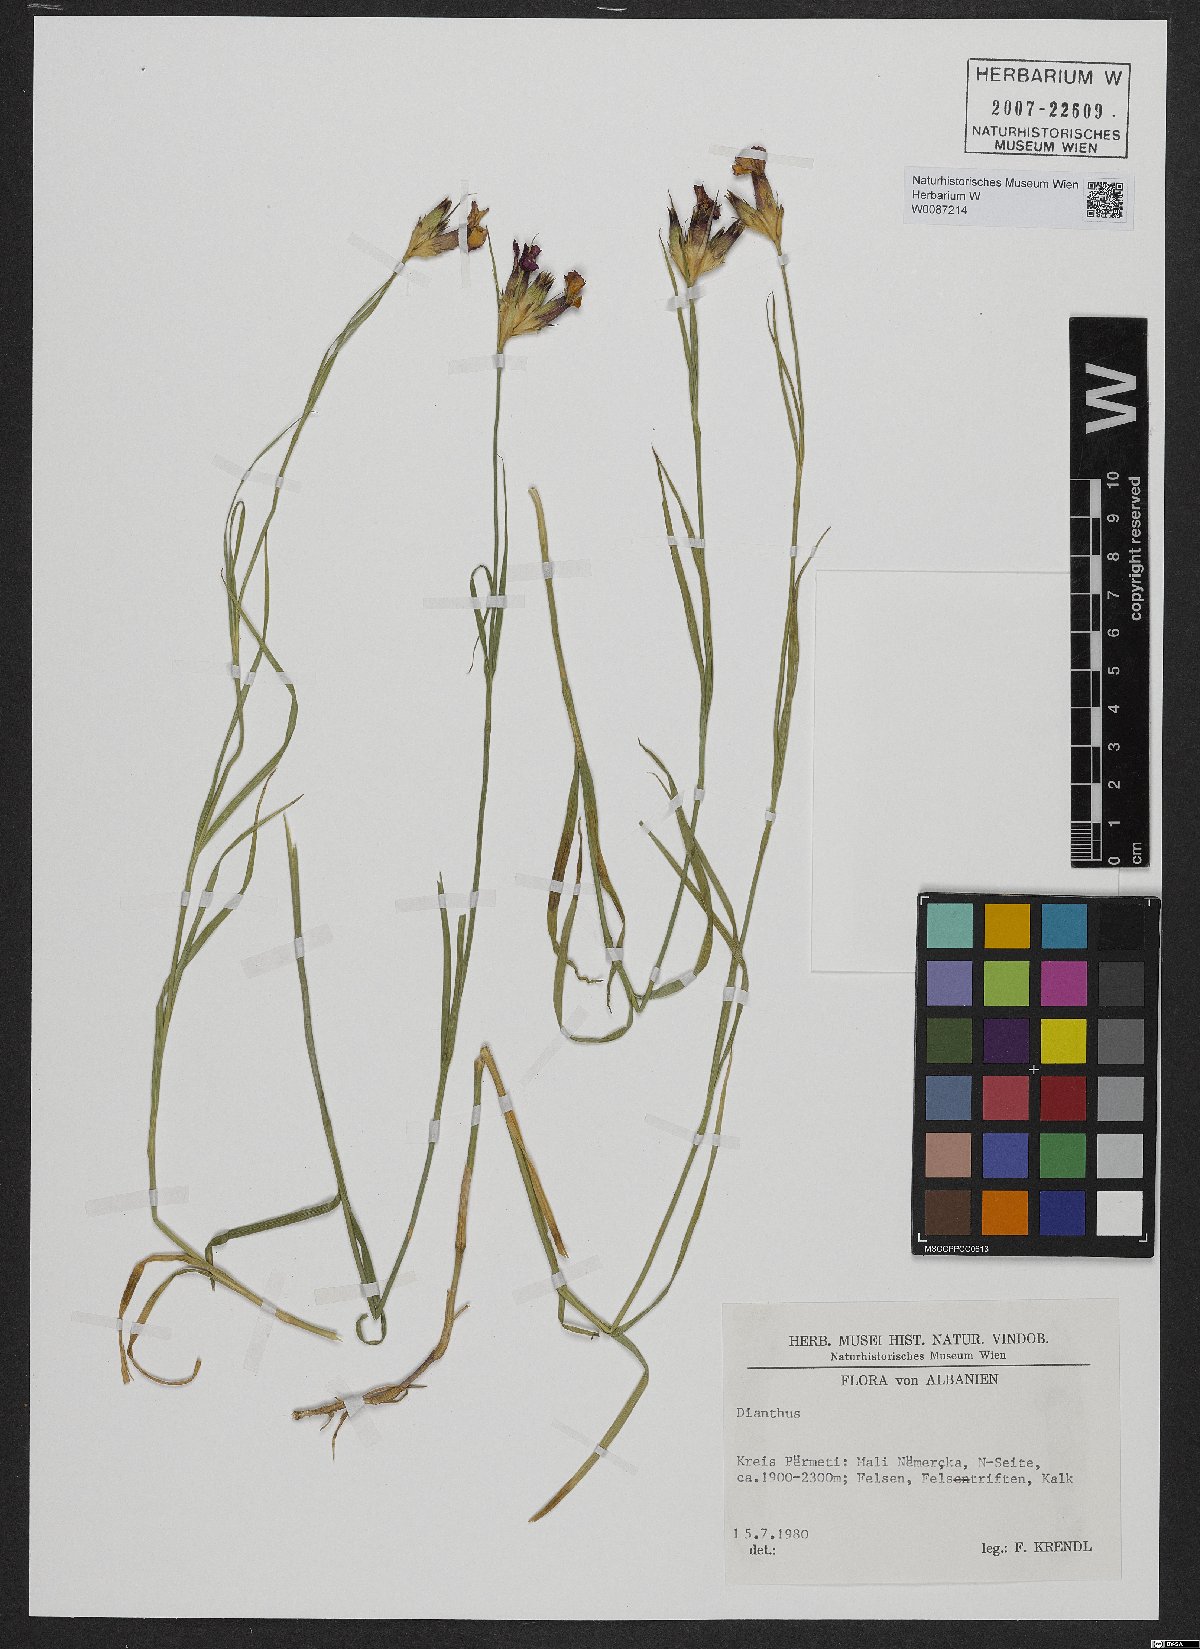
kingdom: Plantae
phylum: Tracheophyta
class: Magnoliopsida
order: Caryophyllales
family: Caryophyllaceae
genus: Dianthus
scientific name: Dianthus
